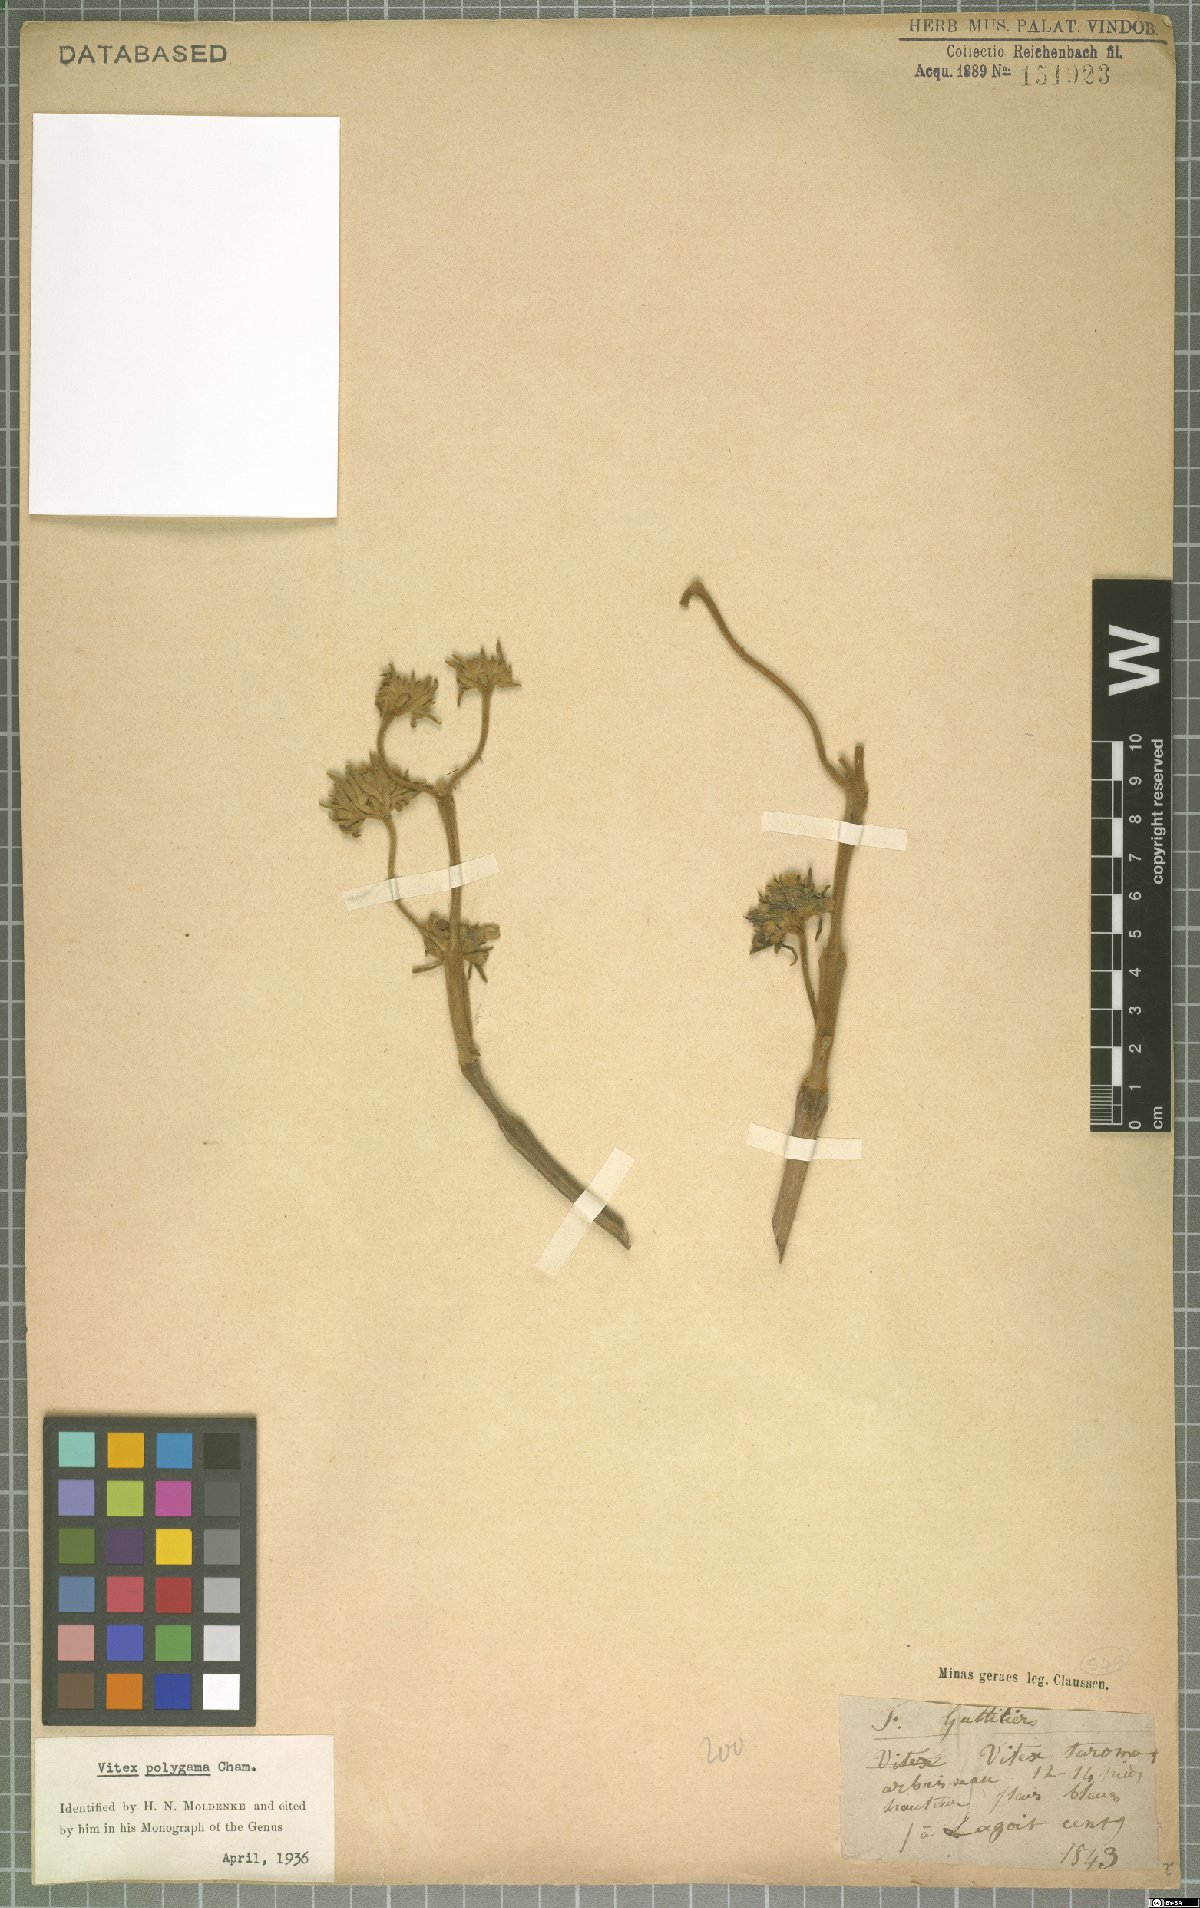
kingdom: Plantae
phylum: Tracheophyta
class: Magnoliopsida
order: Lamiales
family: Lamiaceae
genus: Vitex
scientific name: Vitex polygama
